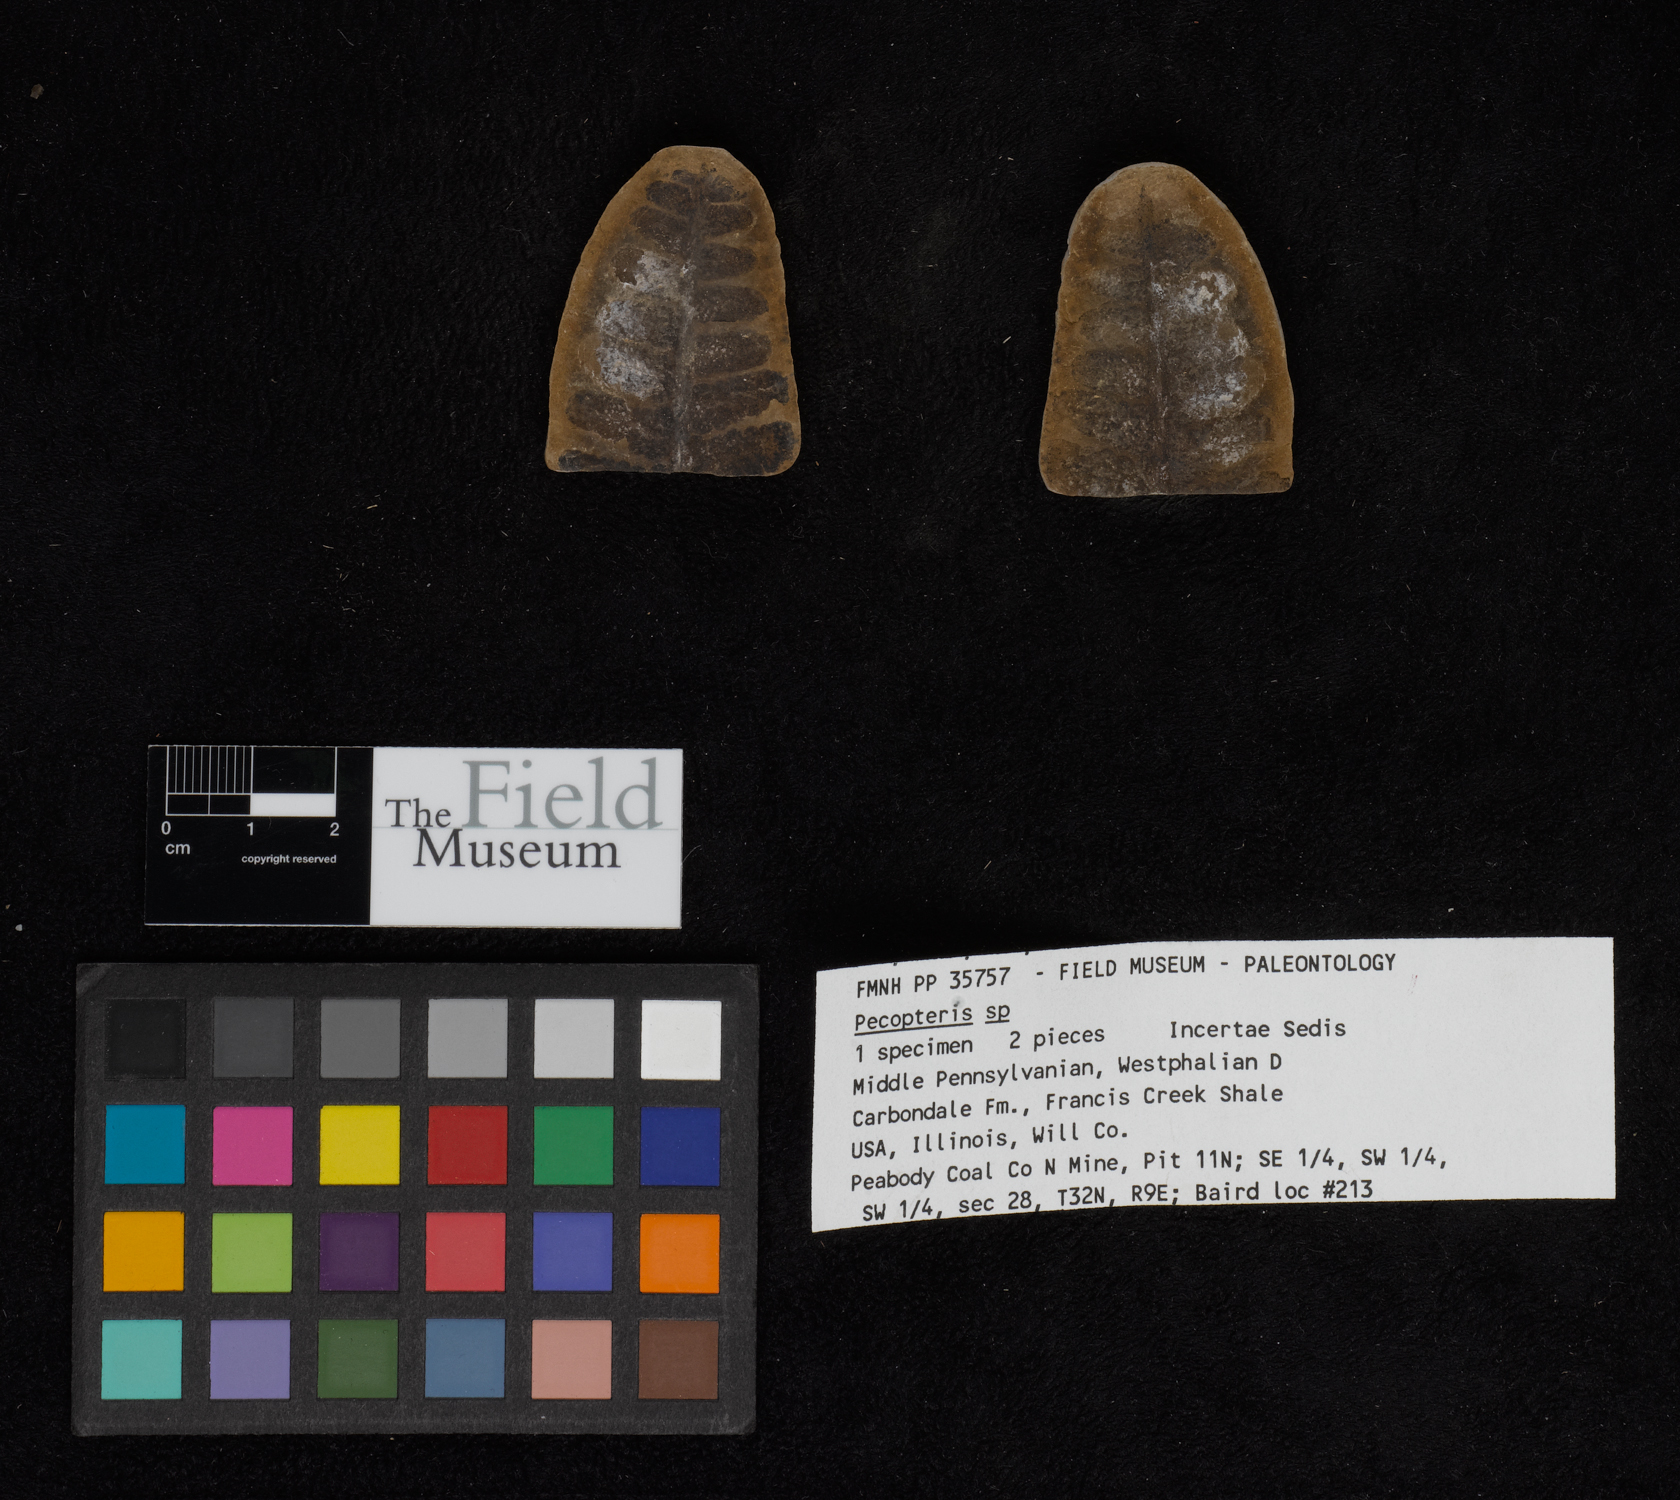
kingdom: Plantae
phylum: Tracheophyta
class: Polypodiopsida
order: Marattiales
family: Asterothecaceae
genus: Pecopteris
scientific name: Pecopteris
